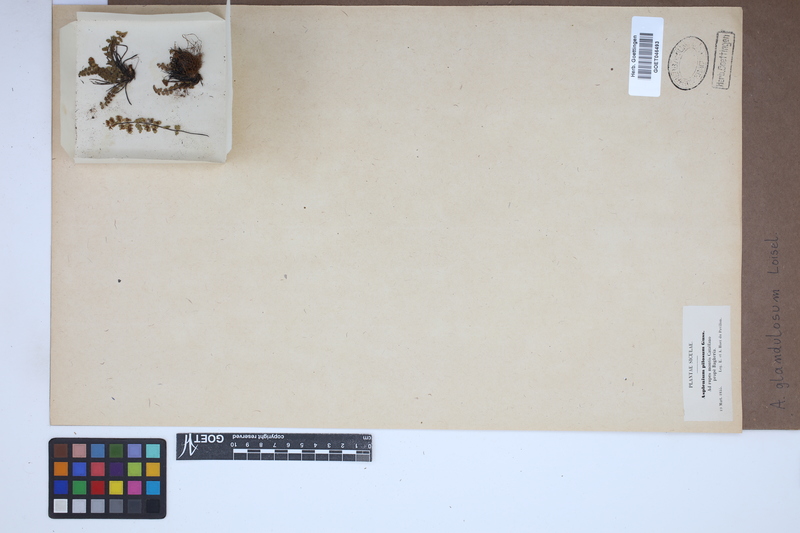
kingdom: Plantae
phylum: Tracheophyta
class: Polypodiopsida
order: Polypodiales
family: Aspleniaceae
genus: Asplenium
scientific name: Asplenium petrarchae
